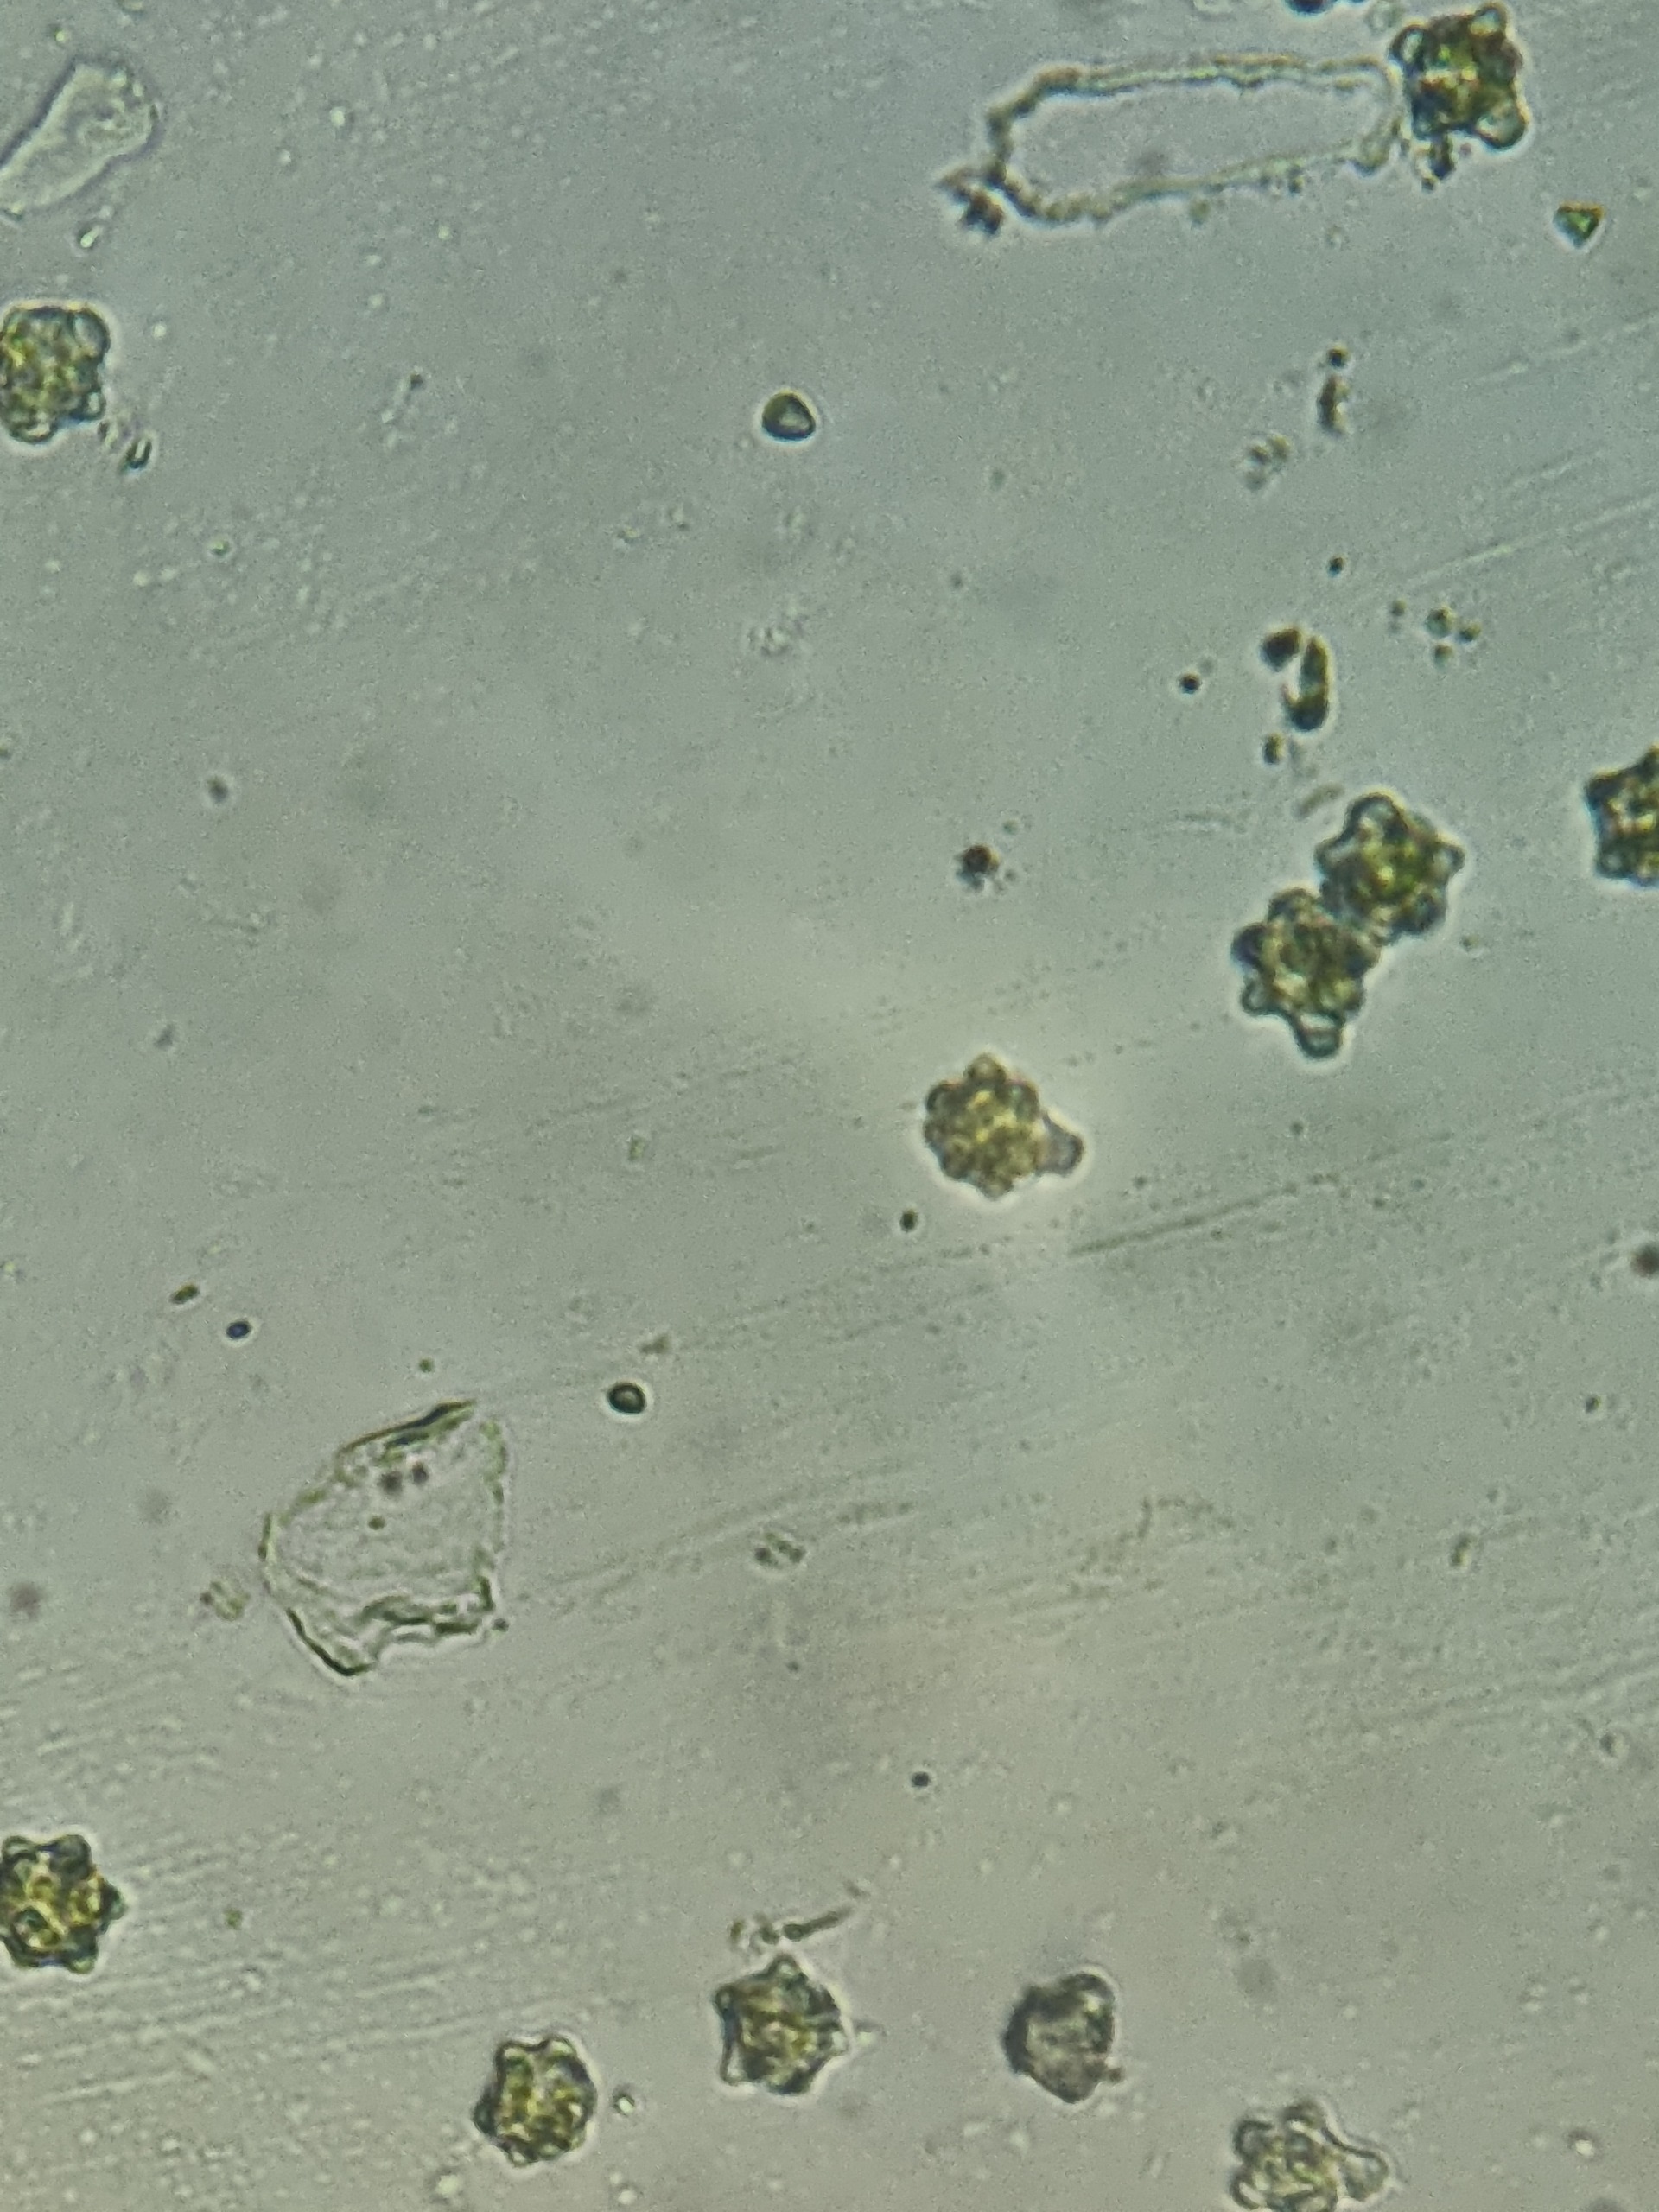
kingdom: Plantae
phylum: Marchantiophyta
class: Jungermanniopsida
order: Jungermanniales
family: Scapaniaceae
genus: Diplophyllum
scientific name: Diplophyllum albicans
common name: Stribet dobbeltblad
